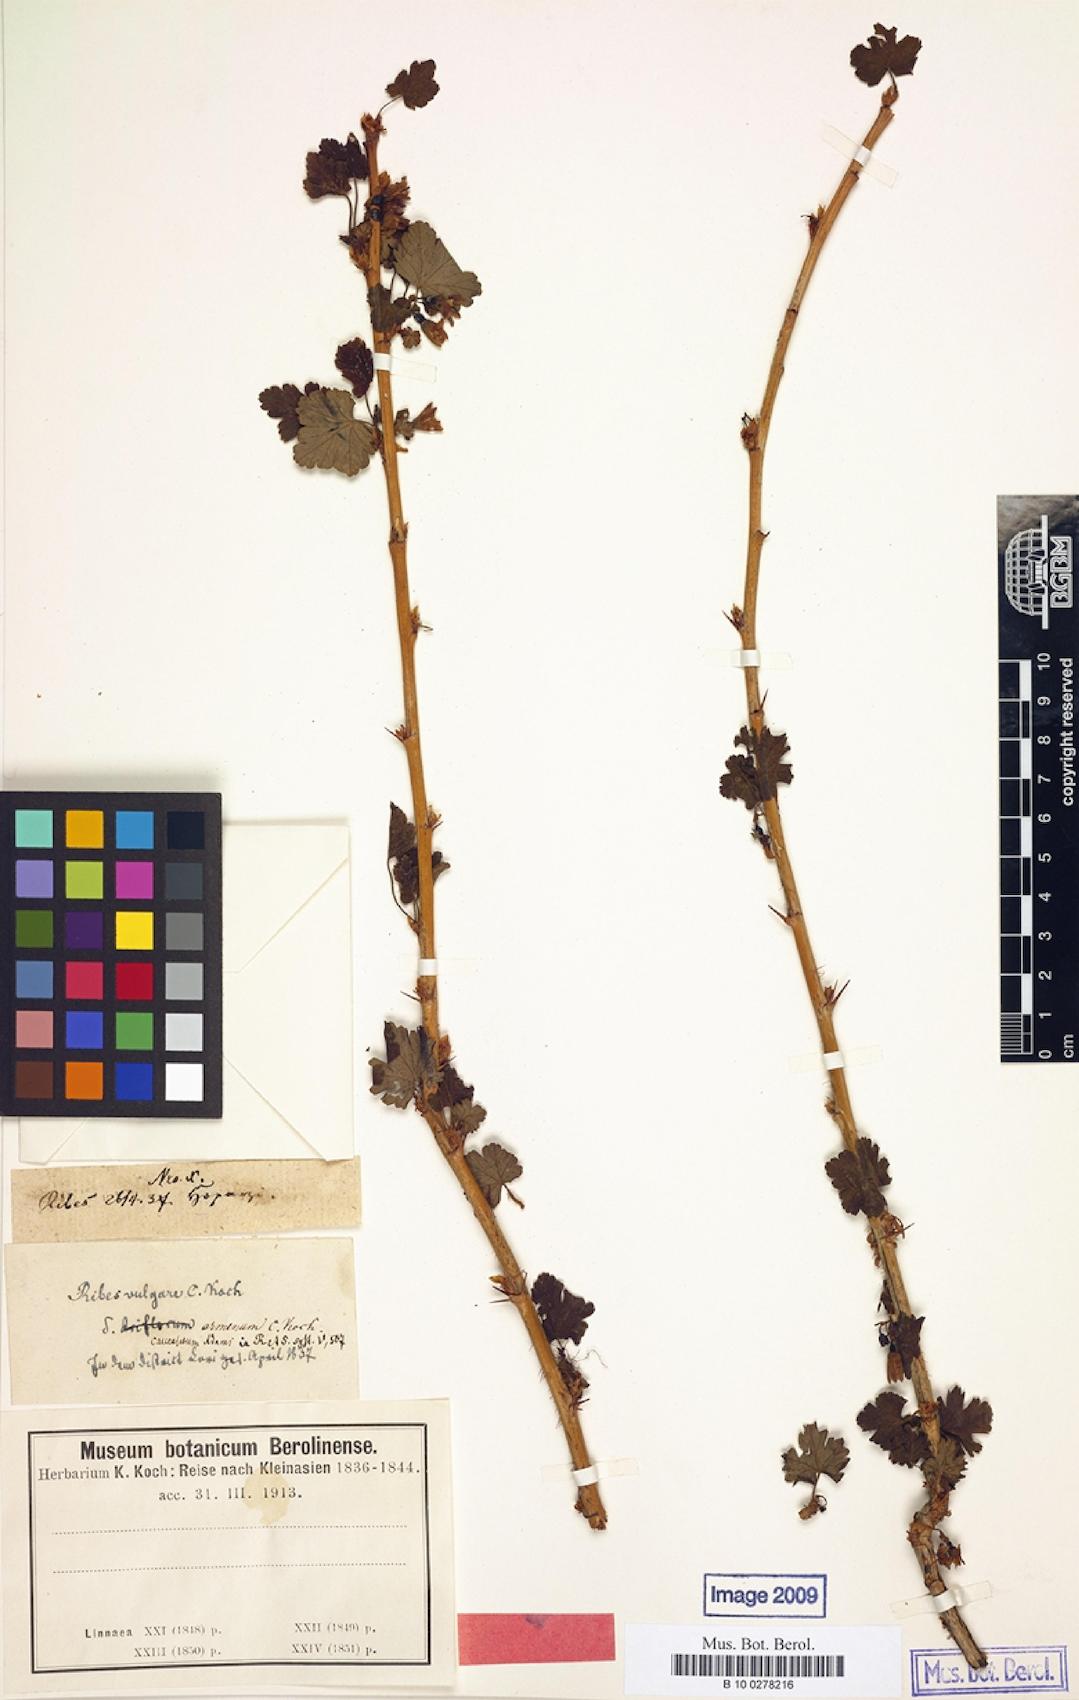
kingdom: Plantae
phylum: Tracheophyta
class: Magnoliopsida
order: Saxifragales
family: Grossulariaceae
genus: Ribes
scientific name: Ribes rubrum
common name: Red currant
